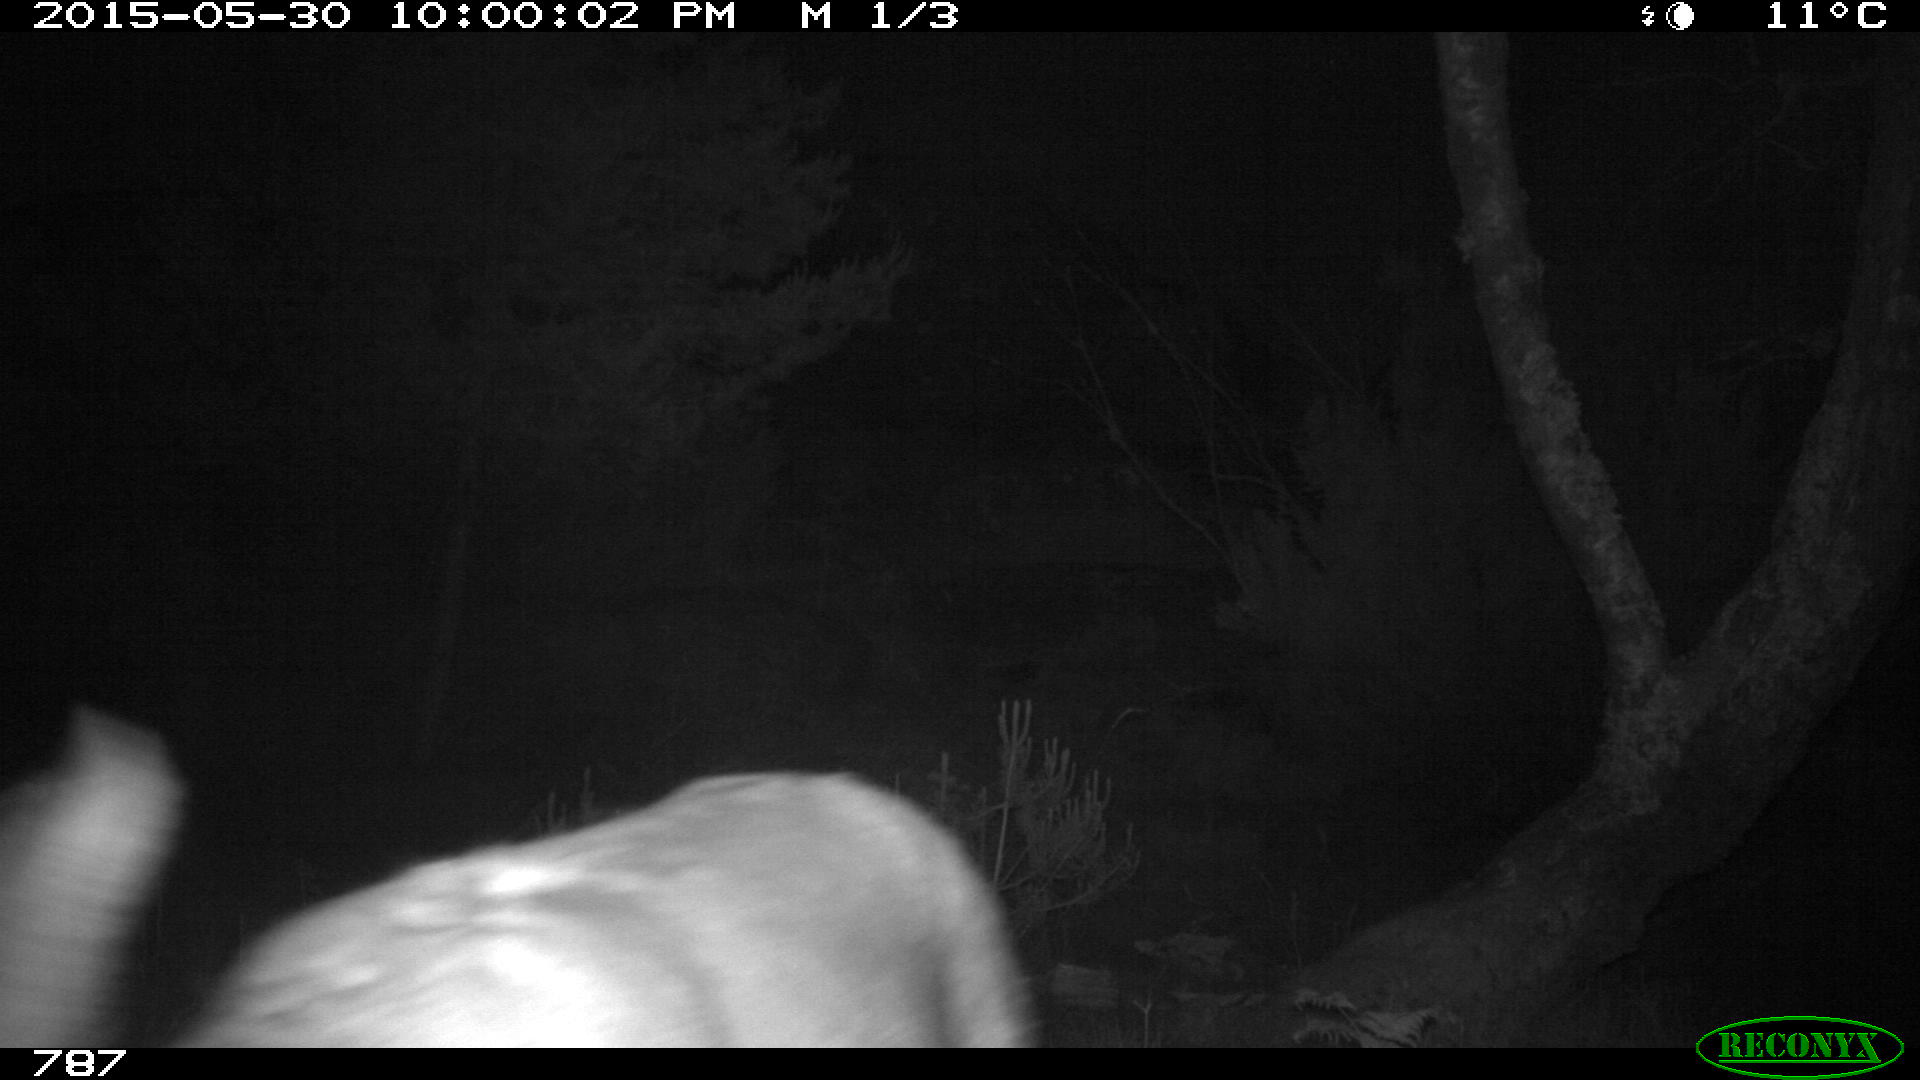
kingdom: Animalia
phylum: Chordata
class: Mammalia
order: Artiodactyla
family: Cervidae
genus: Capreolus
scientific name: Capreolus capreolus
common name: Western roe deer
